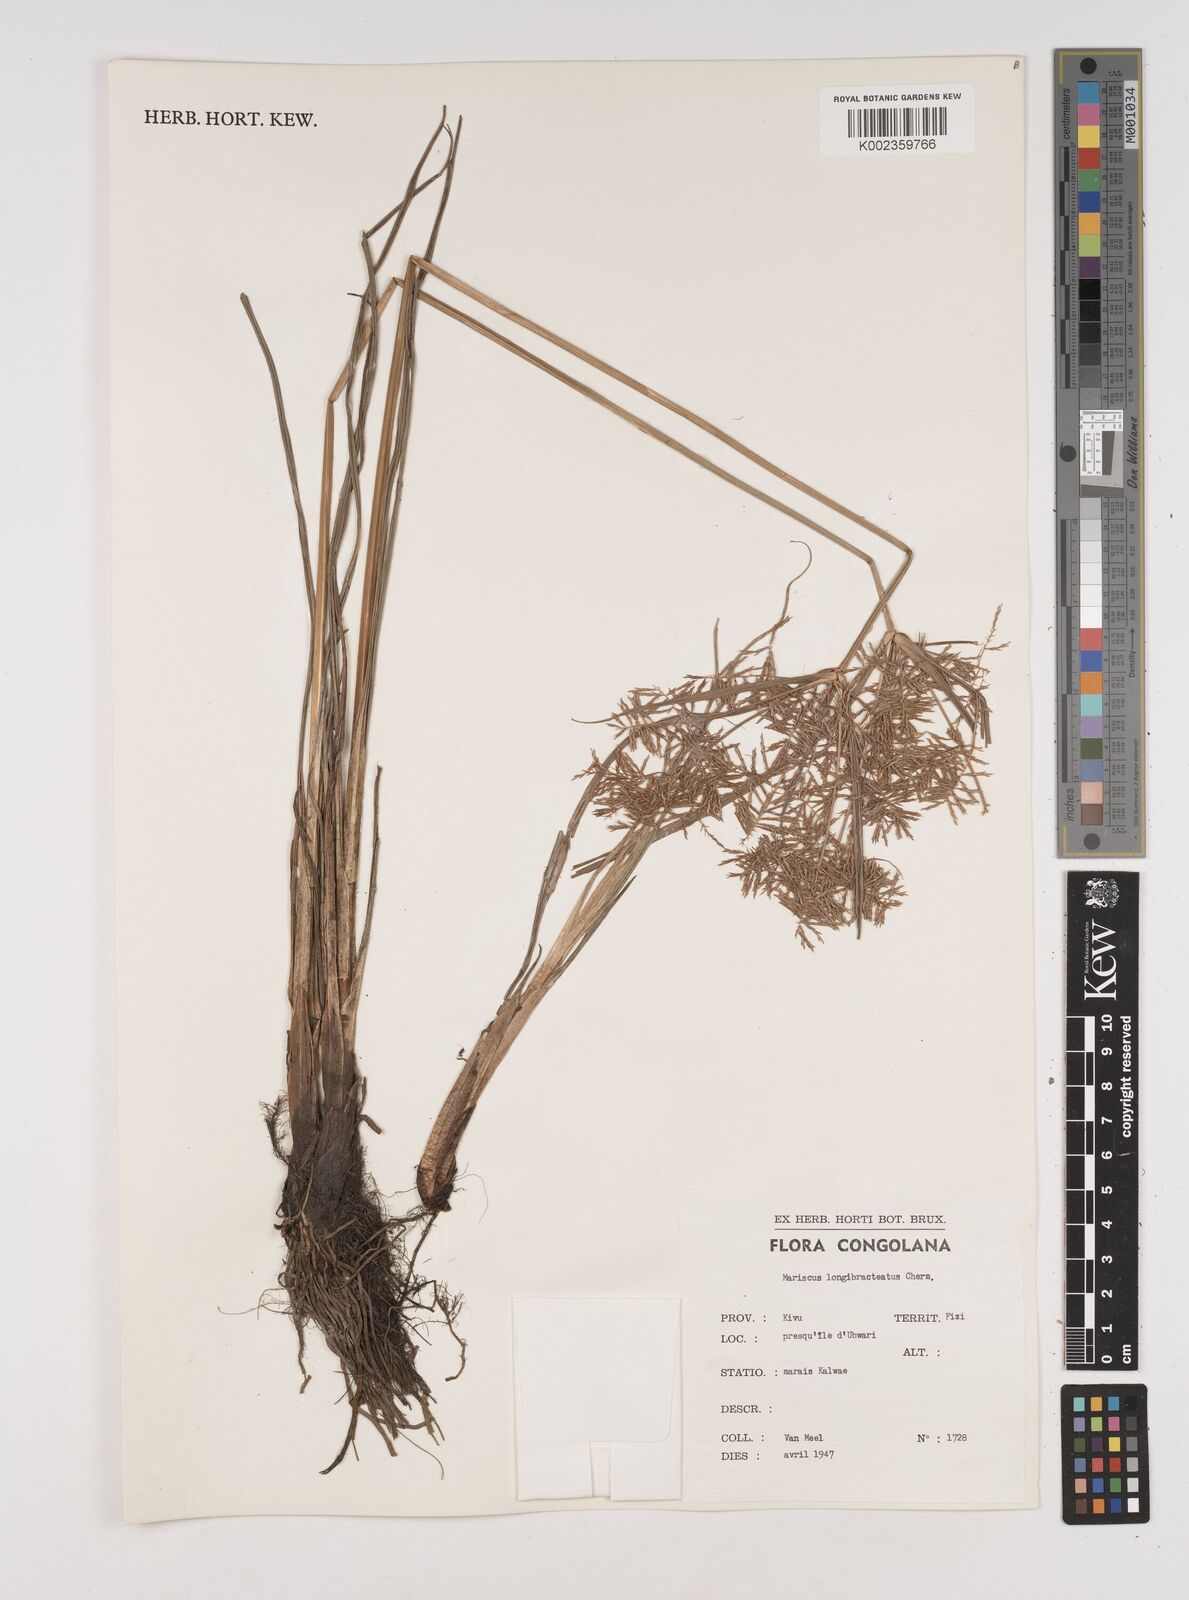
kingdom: Plantae
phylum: Tracheophyta
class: Liliopsida
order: Poales
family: Cyperaceae
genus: Cyperus
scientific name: Cyperus distans
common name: Slender cyperus
